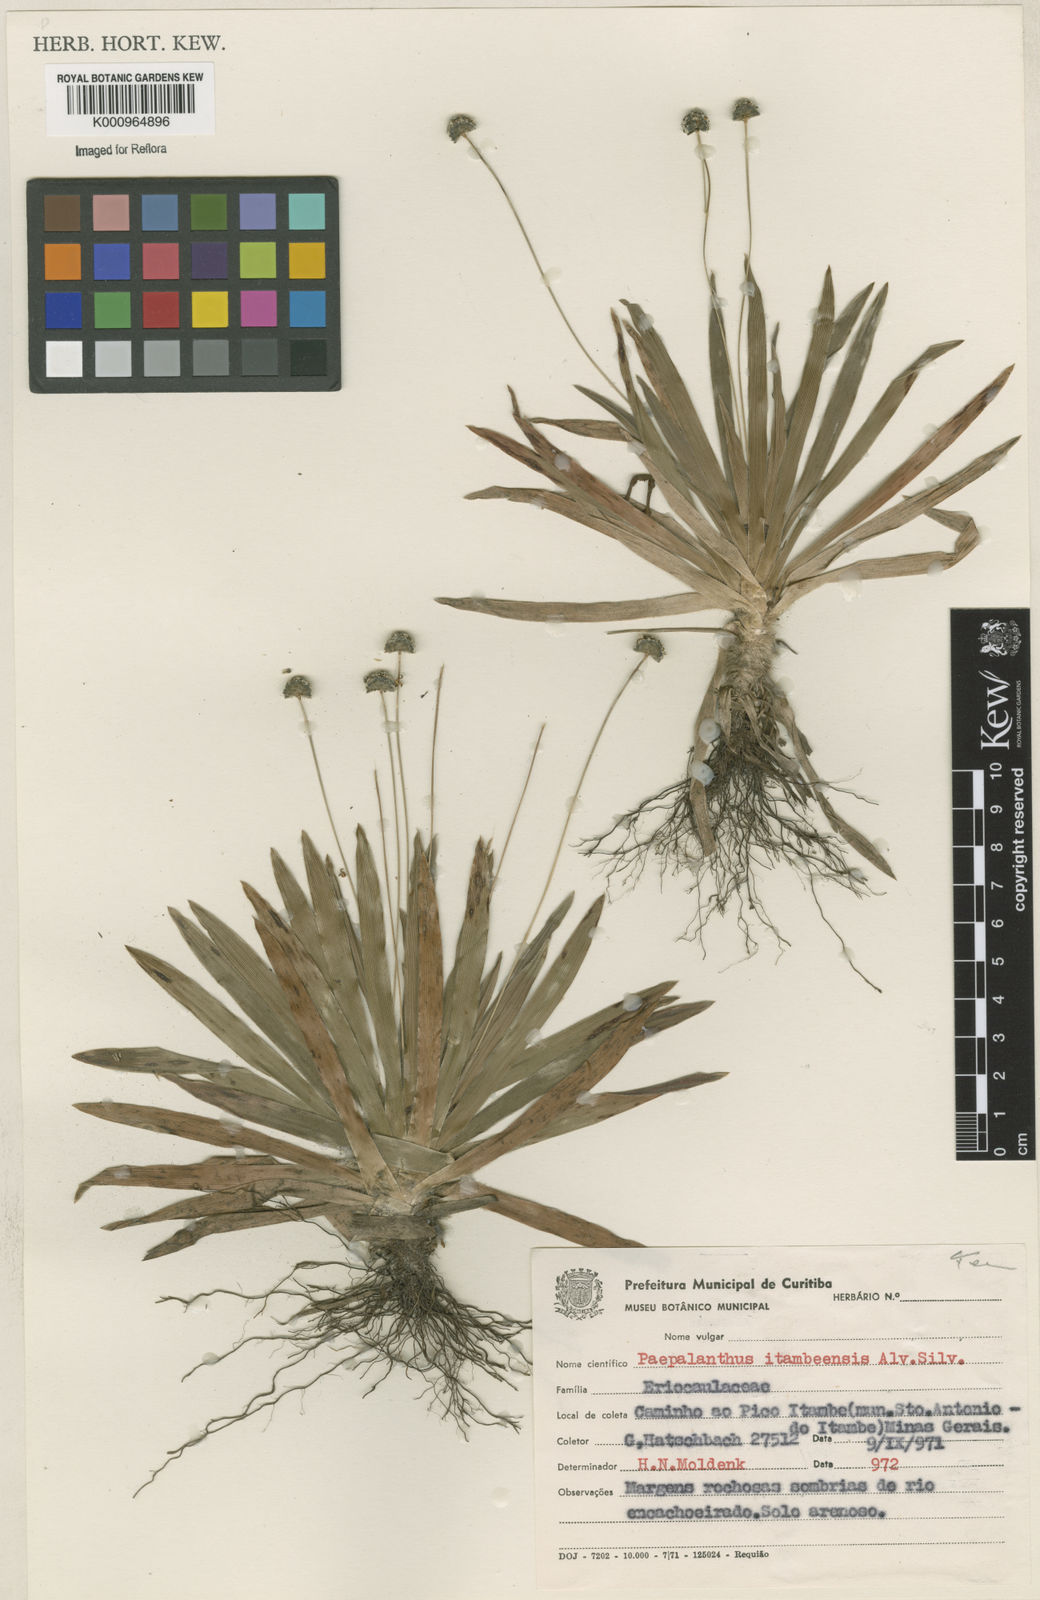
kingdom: Plantae
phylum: Tracheophyta
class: Liliopsida
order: Poales
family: Eriocaulaceae
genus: Paepalanthus
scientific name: Paepalanthus itambeensis
